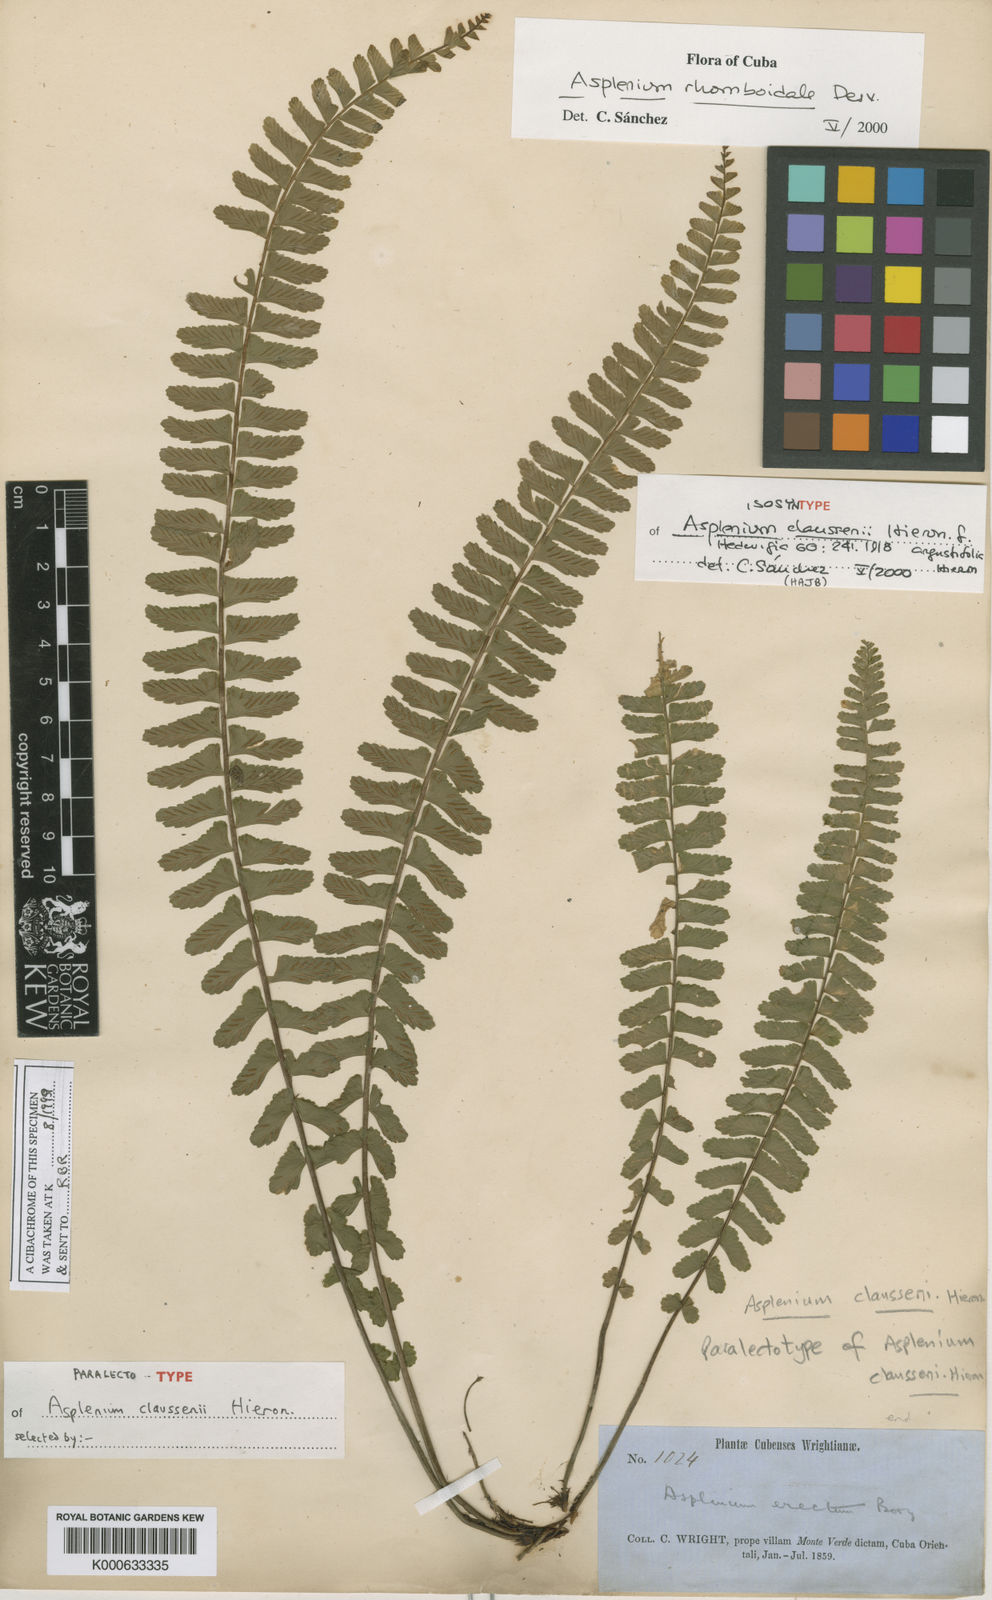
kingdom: Plantae
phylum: Tracheophyta
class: Polypodiopsida
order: Polypodiales
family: Aspleniaceae
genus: Asplenium
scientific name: Asplenium claussenii
